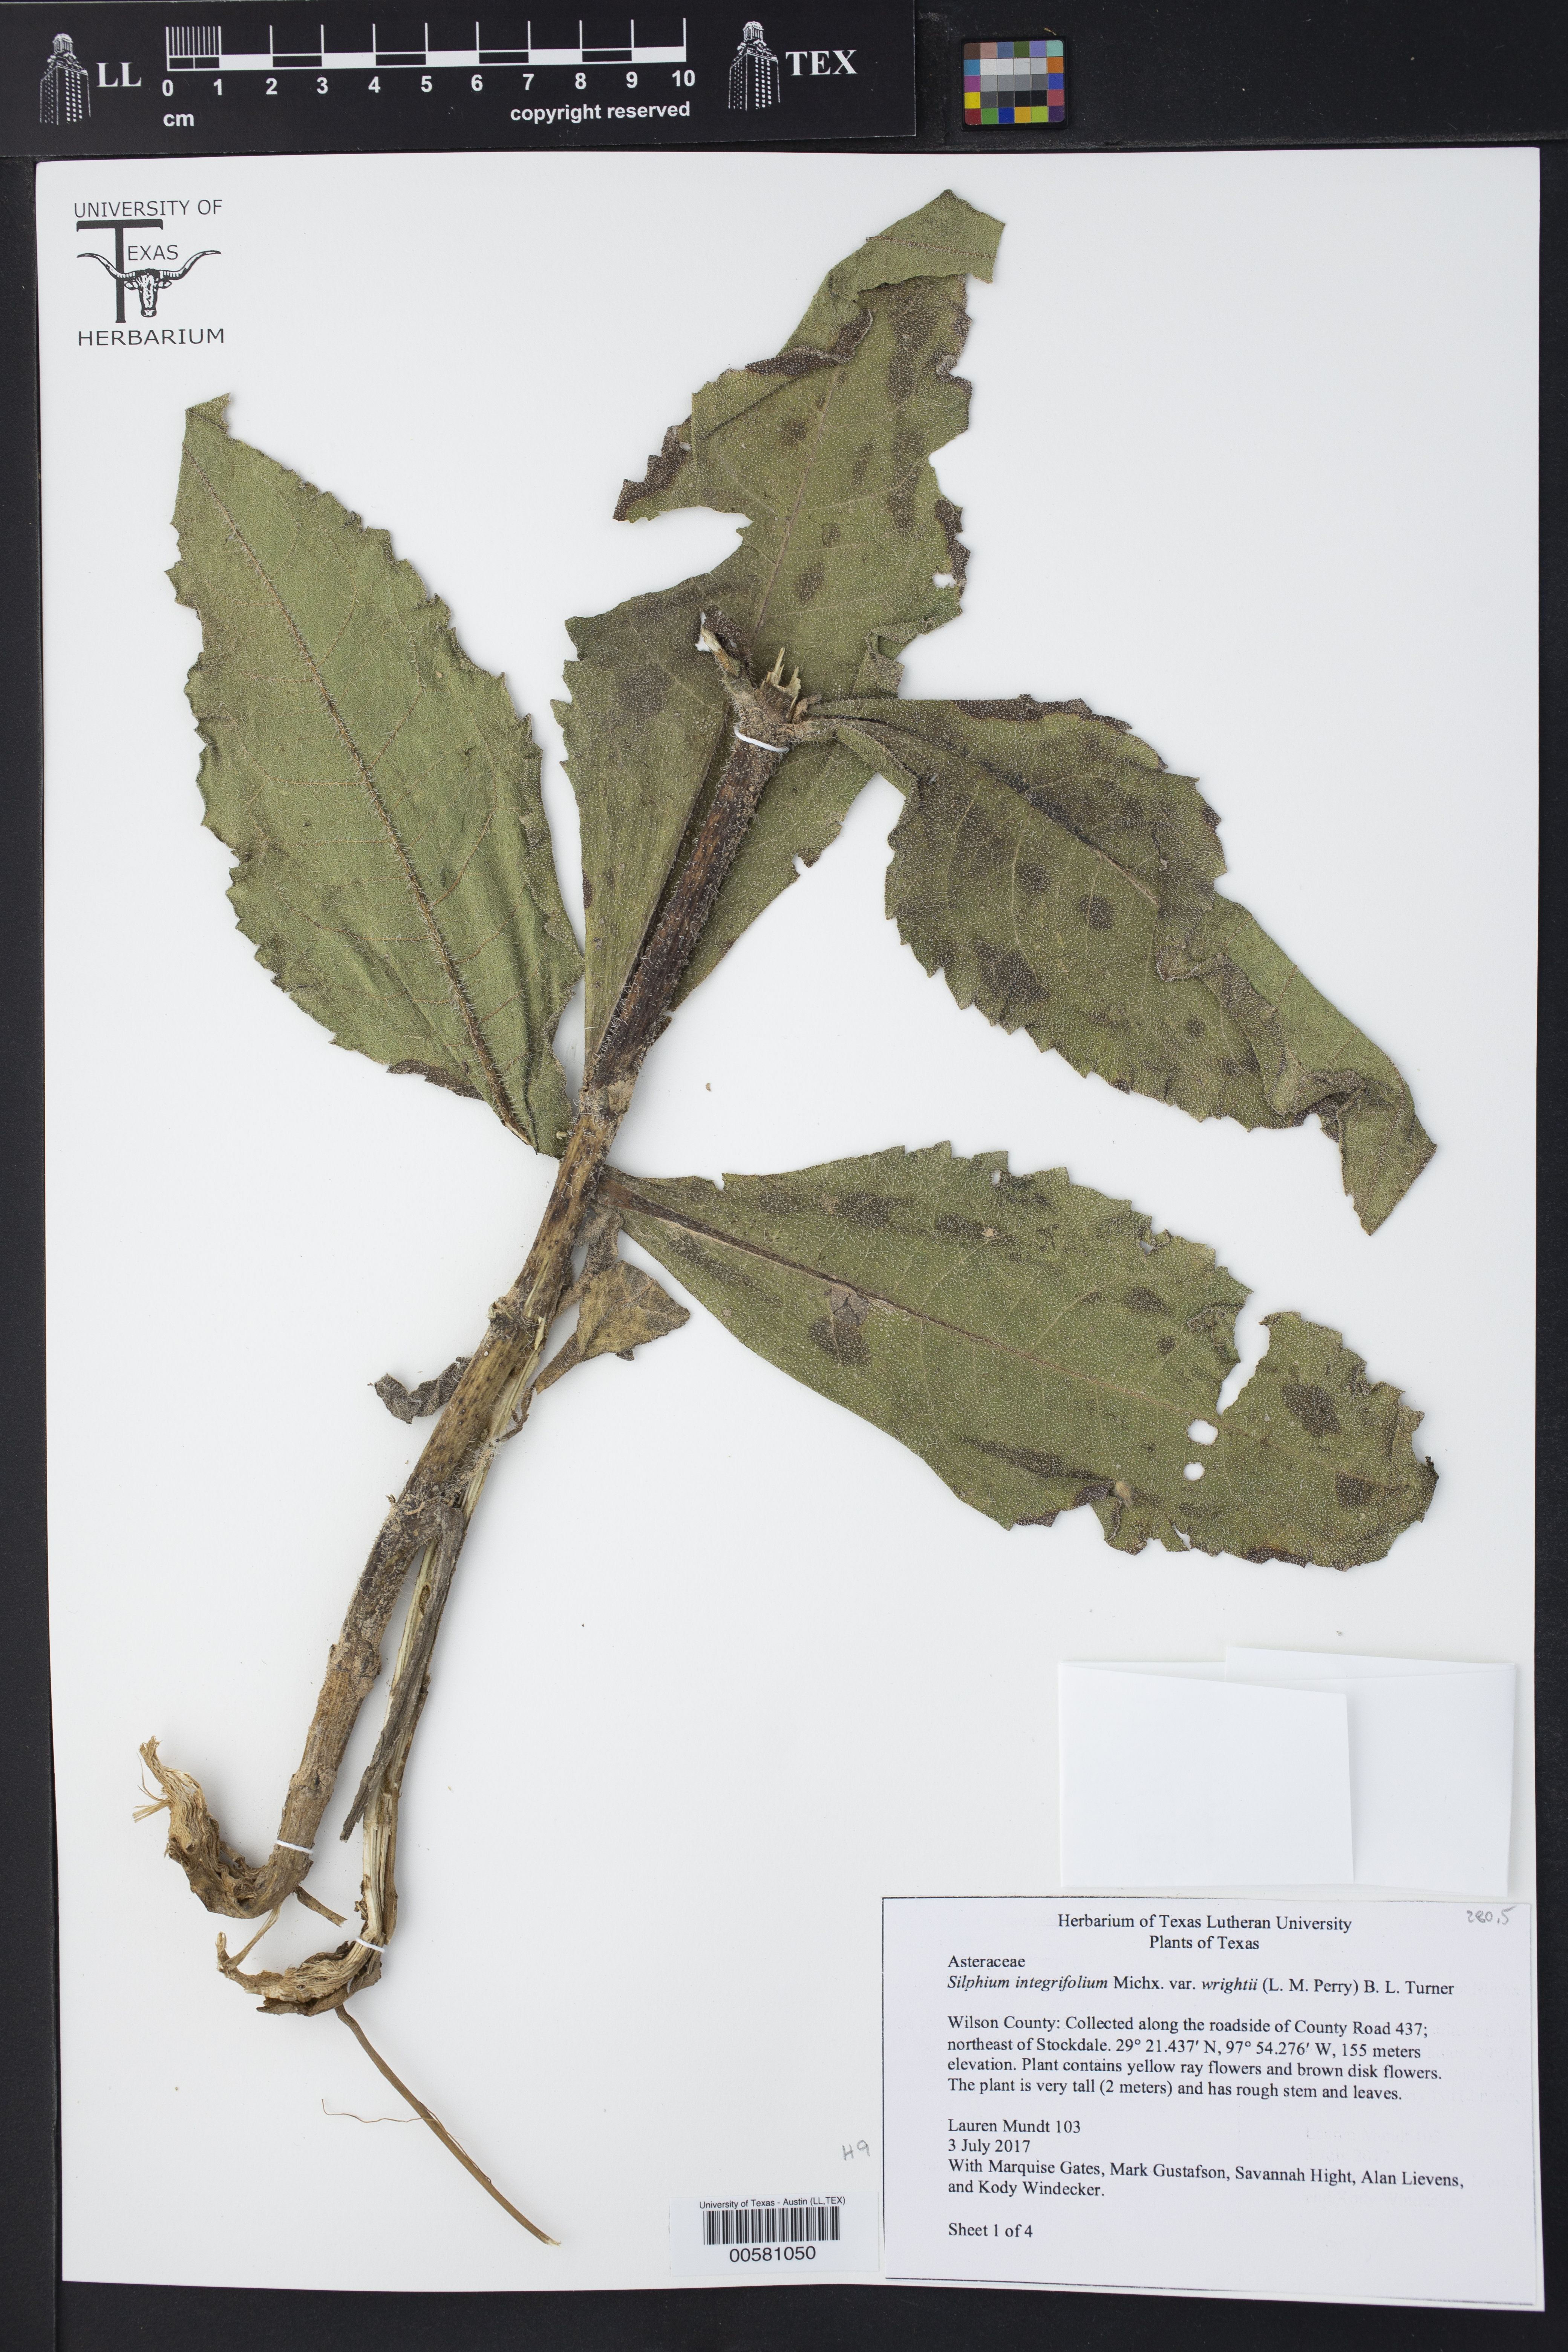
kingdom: Plantae
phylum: Tracheophyta
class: Magnoliopsida
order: Asterales
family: Asteraceae
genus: Silphium
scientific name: Silphium radula
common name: Roughleaf rosinweed
